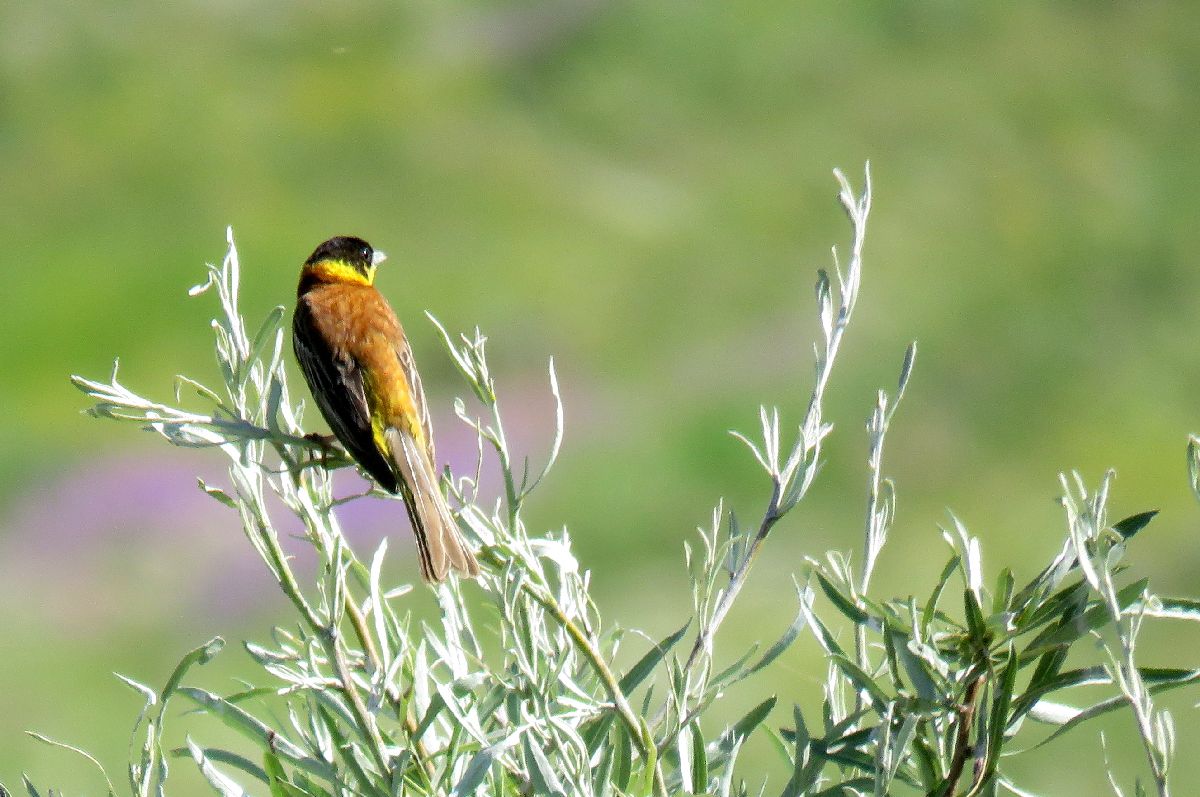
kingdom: Animalia
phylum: Chordata
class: Aves
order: Passeriformes
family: Emberizidae
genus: Emberiza
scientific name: Emberiza cia
